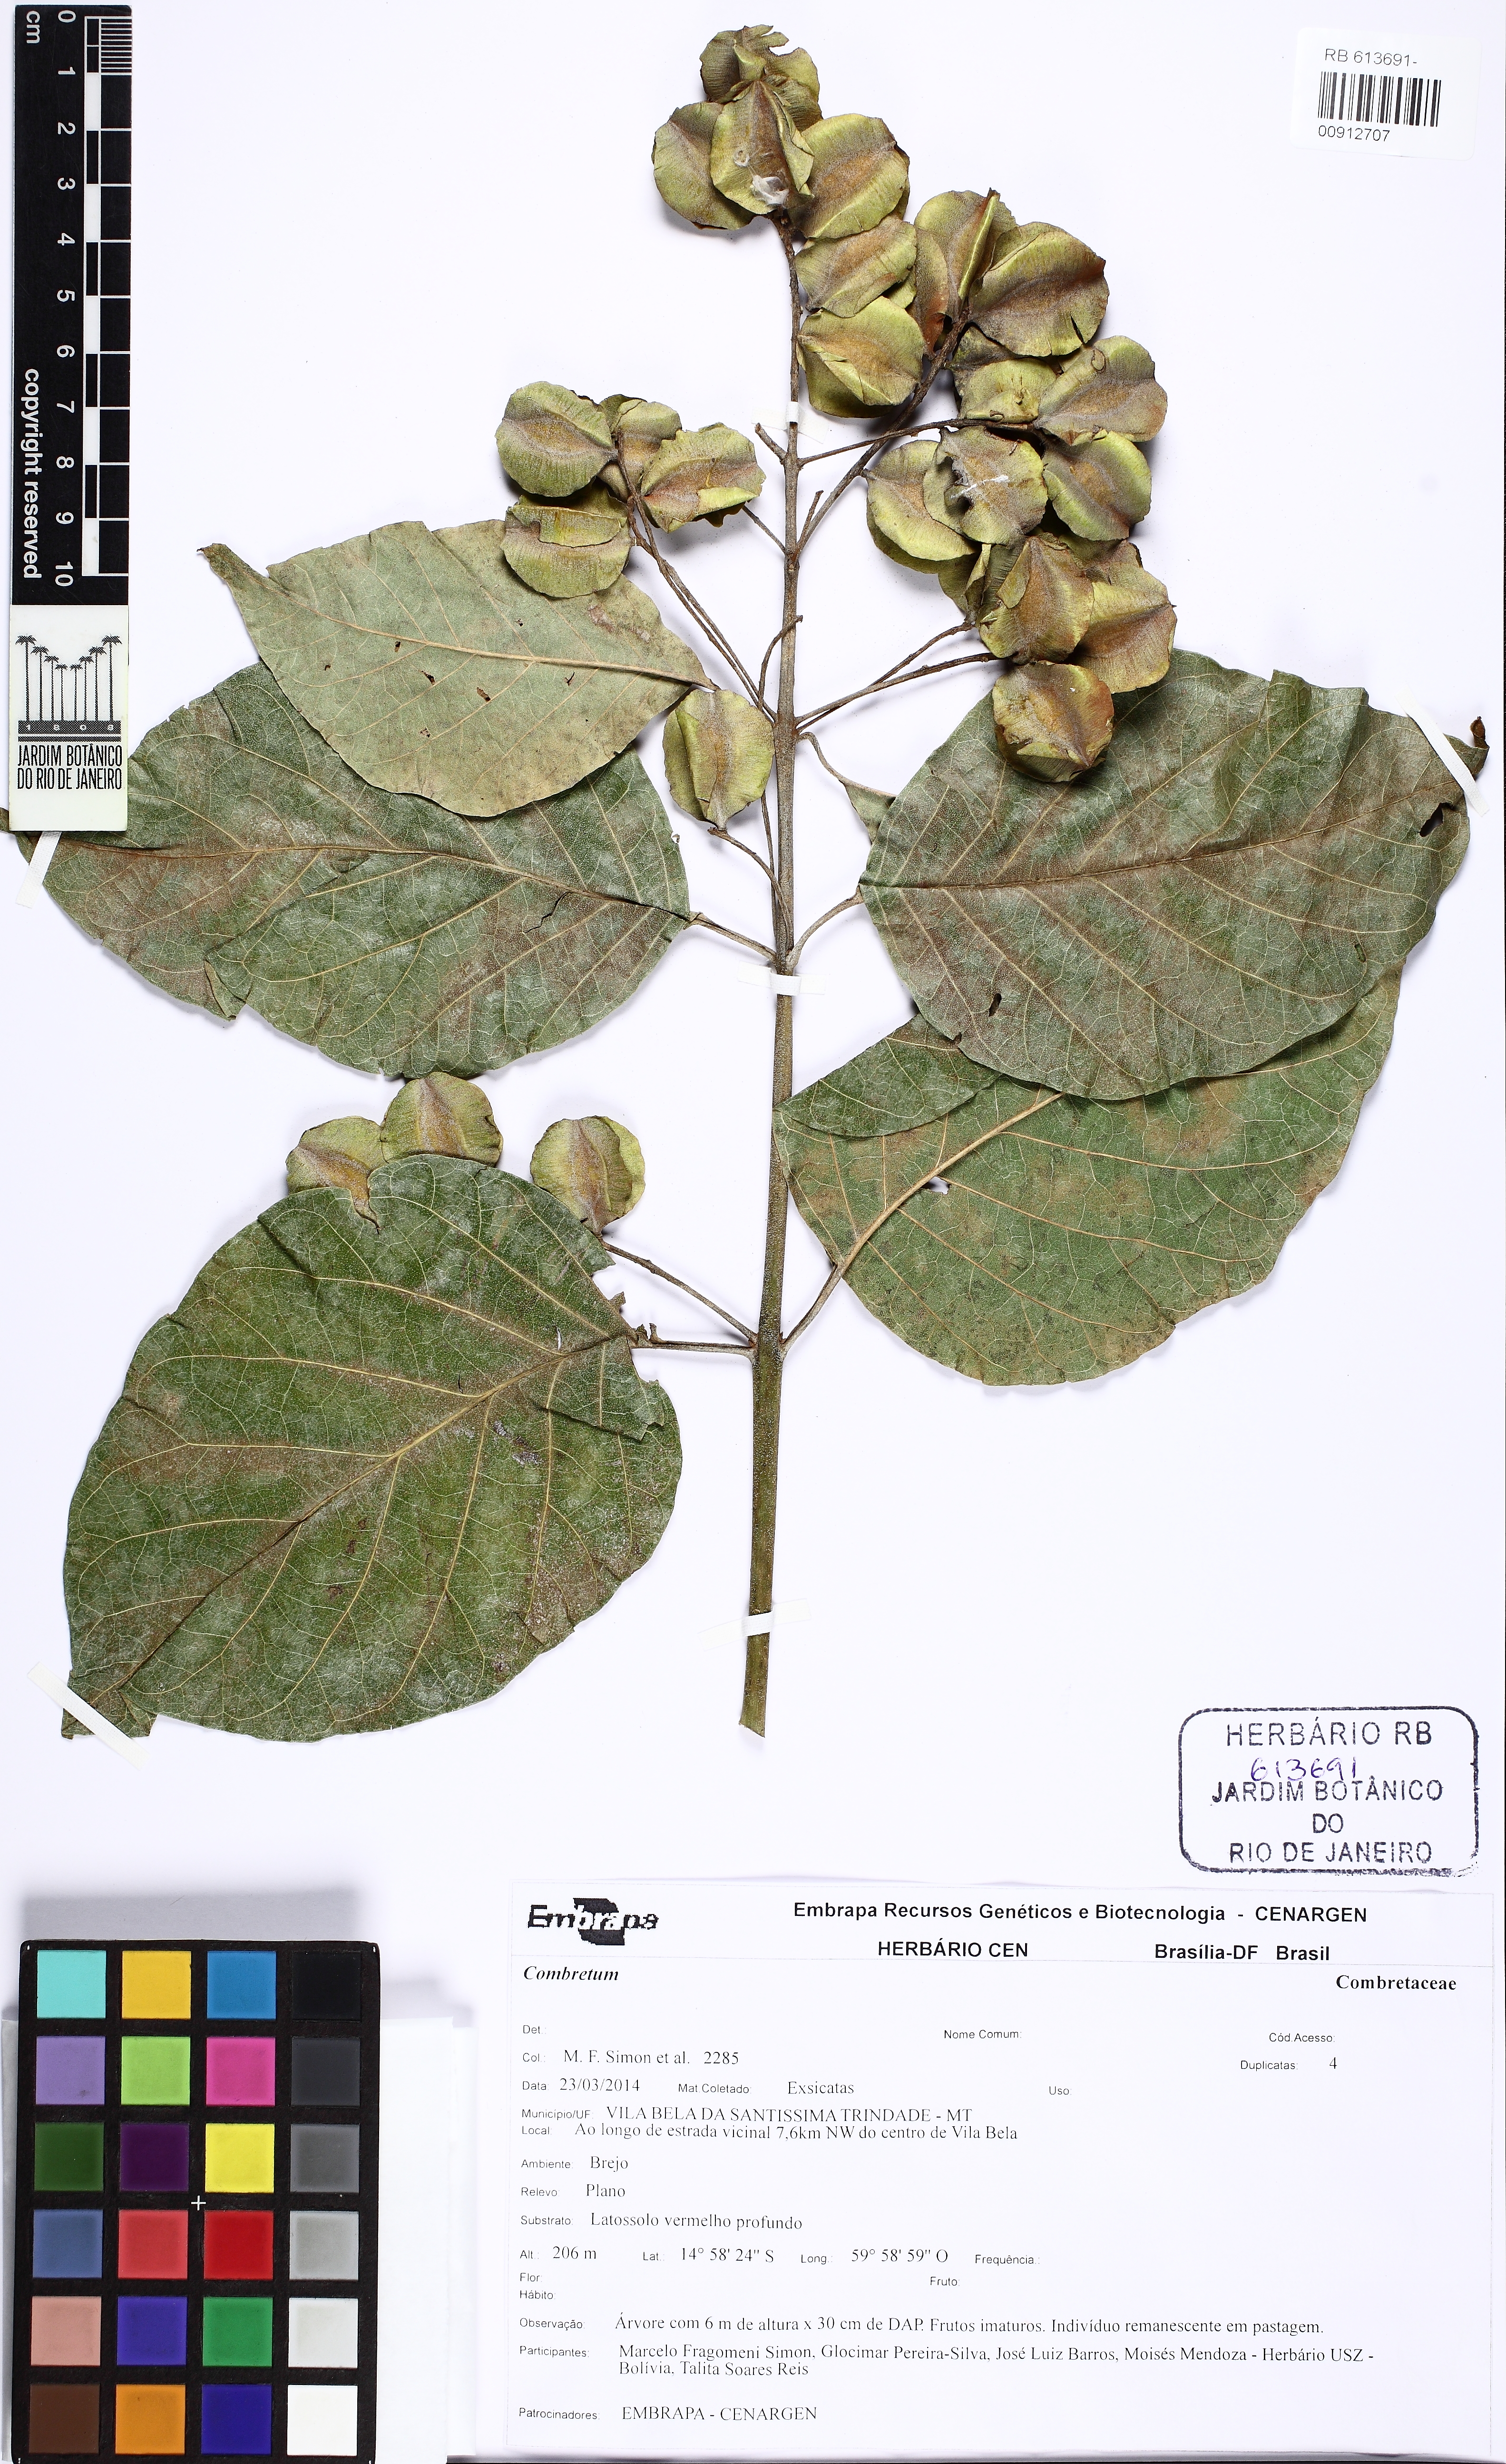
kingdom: Plantae
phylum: Tracheophyta
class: Magnoliopsida
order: Myrtales
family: Combretaceae
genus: Combretum
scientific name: Combretum
